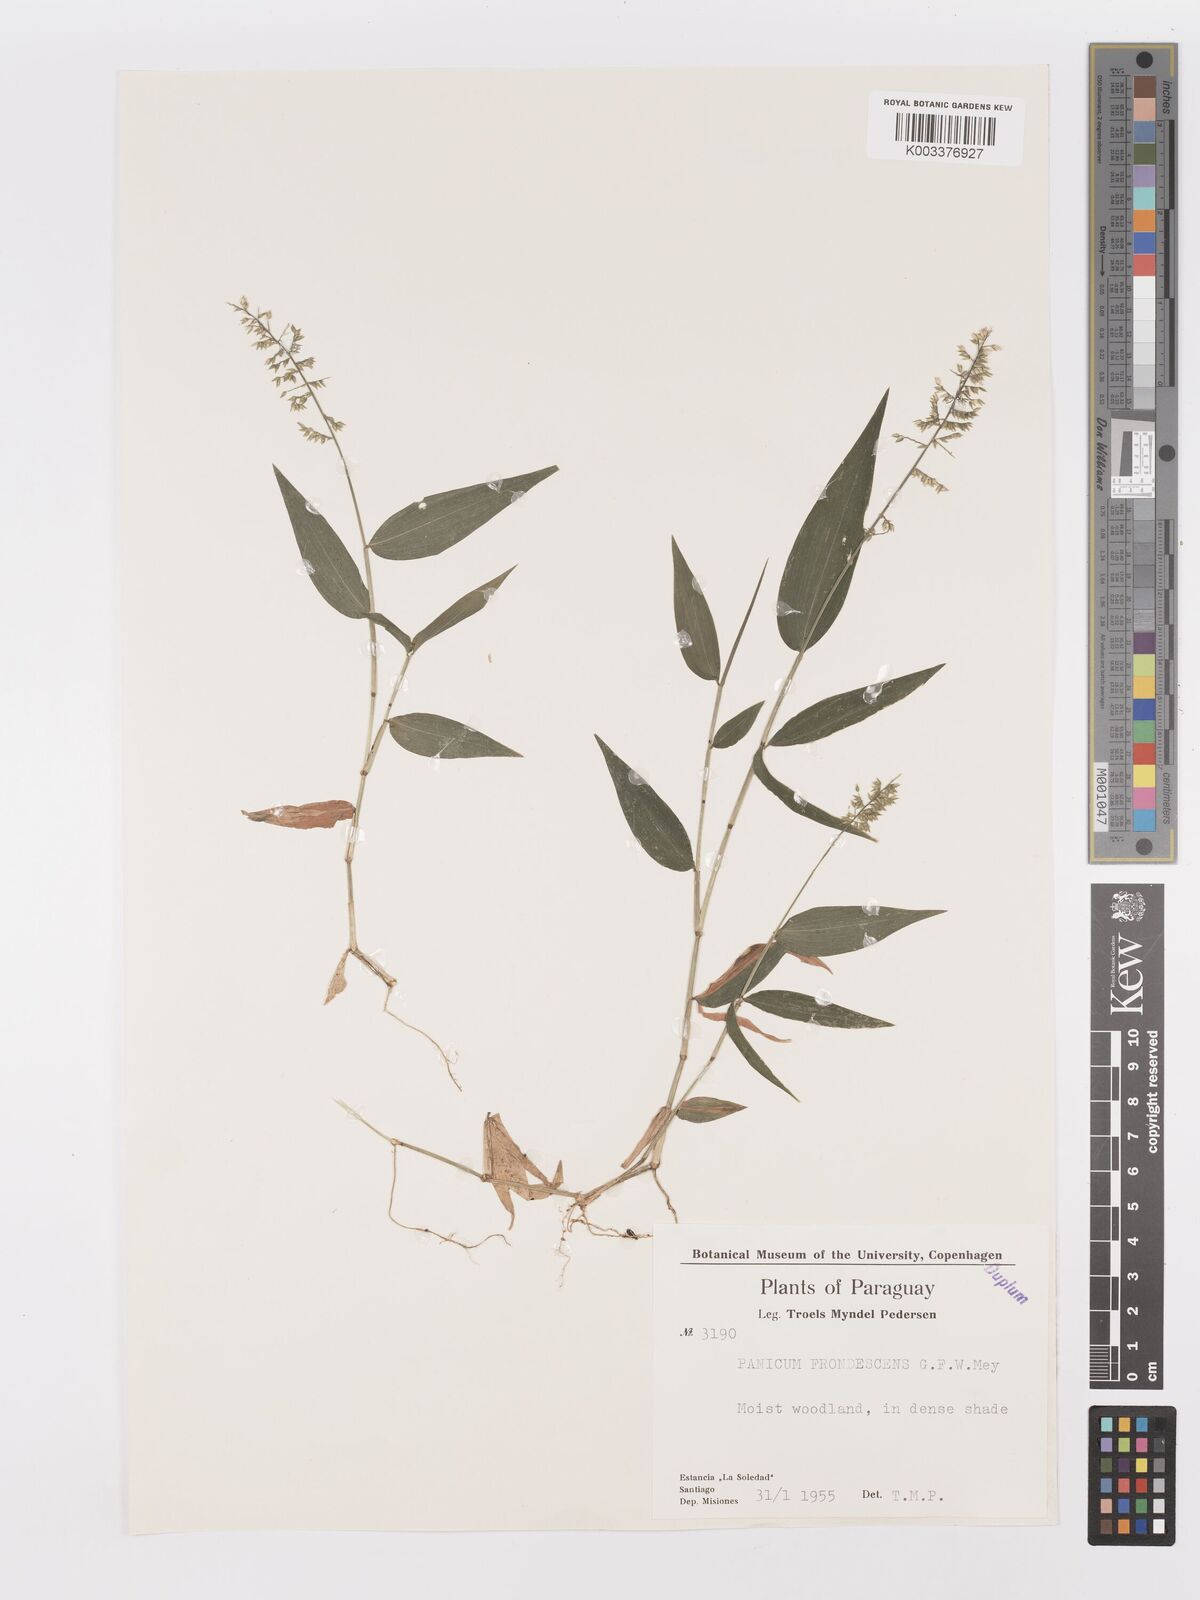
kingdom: Plantae
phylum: Tracheophyta
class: Liliopsida
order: Poales
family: Poaceae
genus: Ocellochloa
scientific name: Ocellochloa stolonifera
